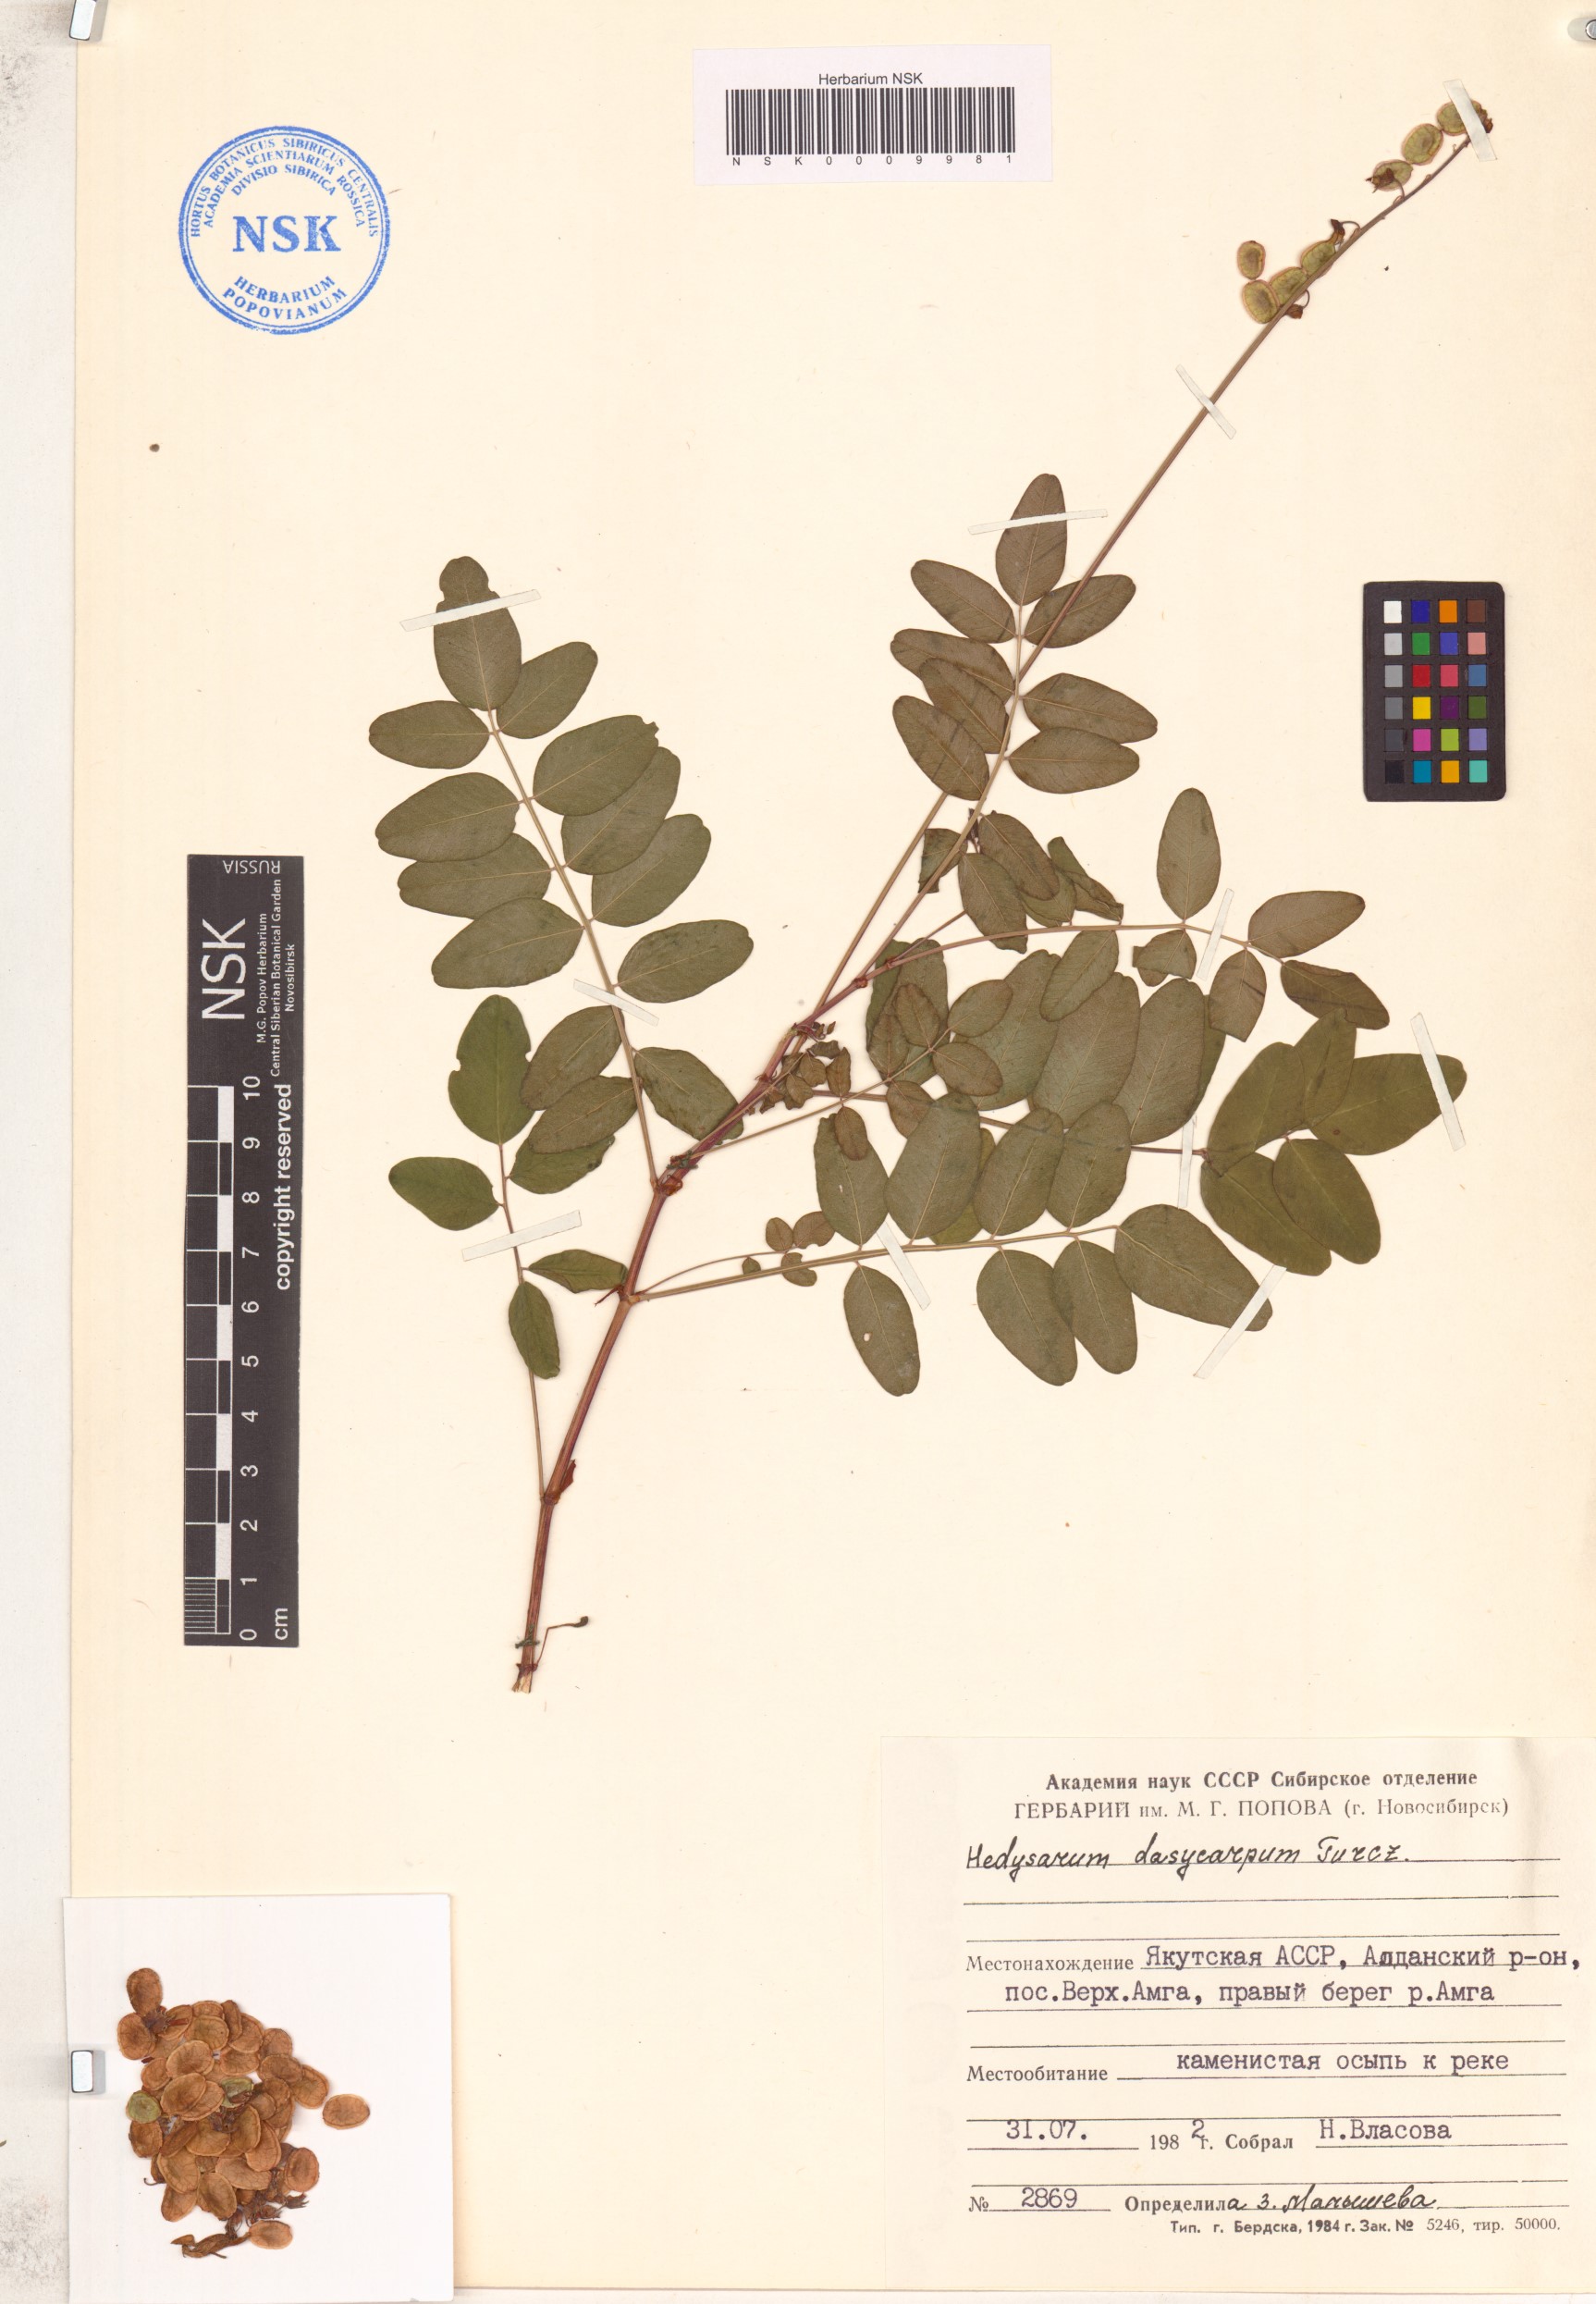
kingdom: Plantae
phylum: Tracheophyta
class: Magnoliopsida
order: Fabales
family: Fabaceae
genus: Hedysarum
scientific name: Hedysarum dasycarpum
